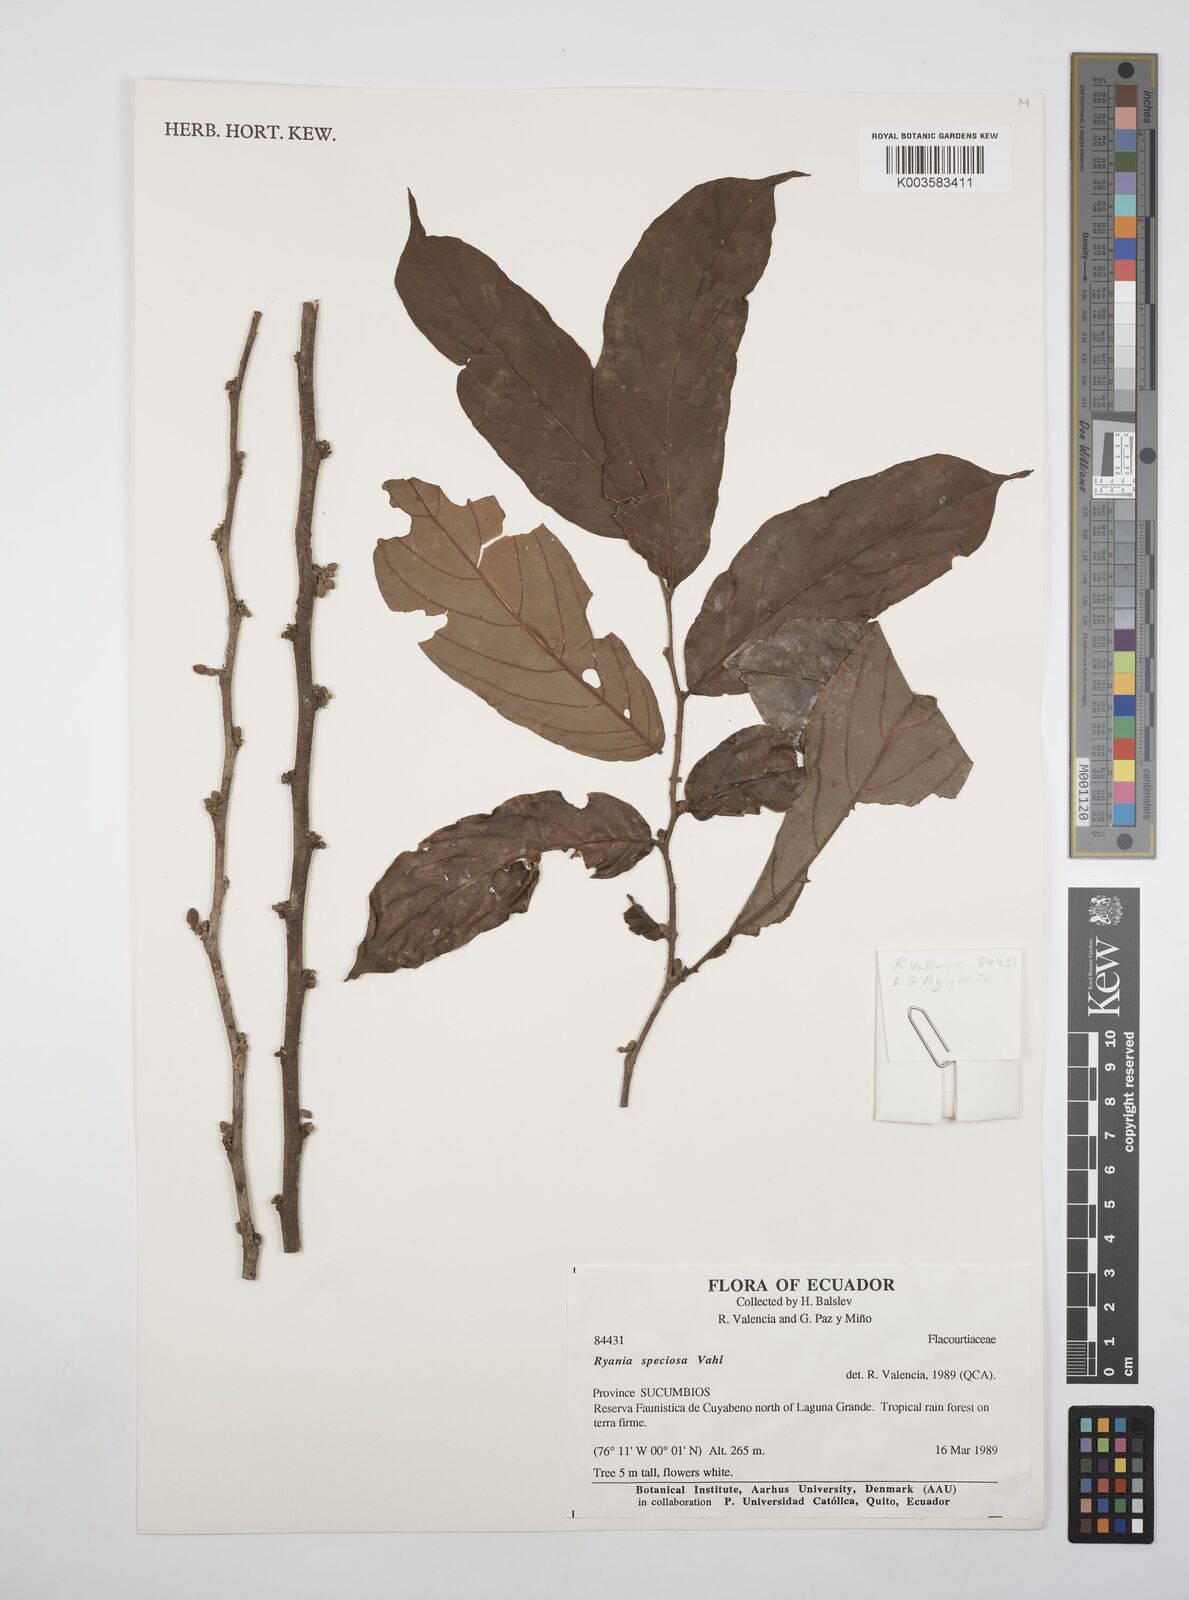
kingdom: Plantae
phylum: Tracheophyta
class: Magnoliopsida
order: Malpighiales
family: Salicaceae
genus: Ryania
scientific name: Ryania speciosa
